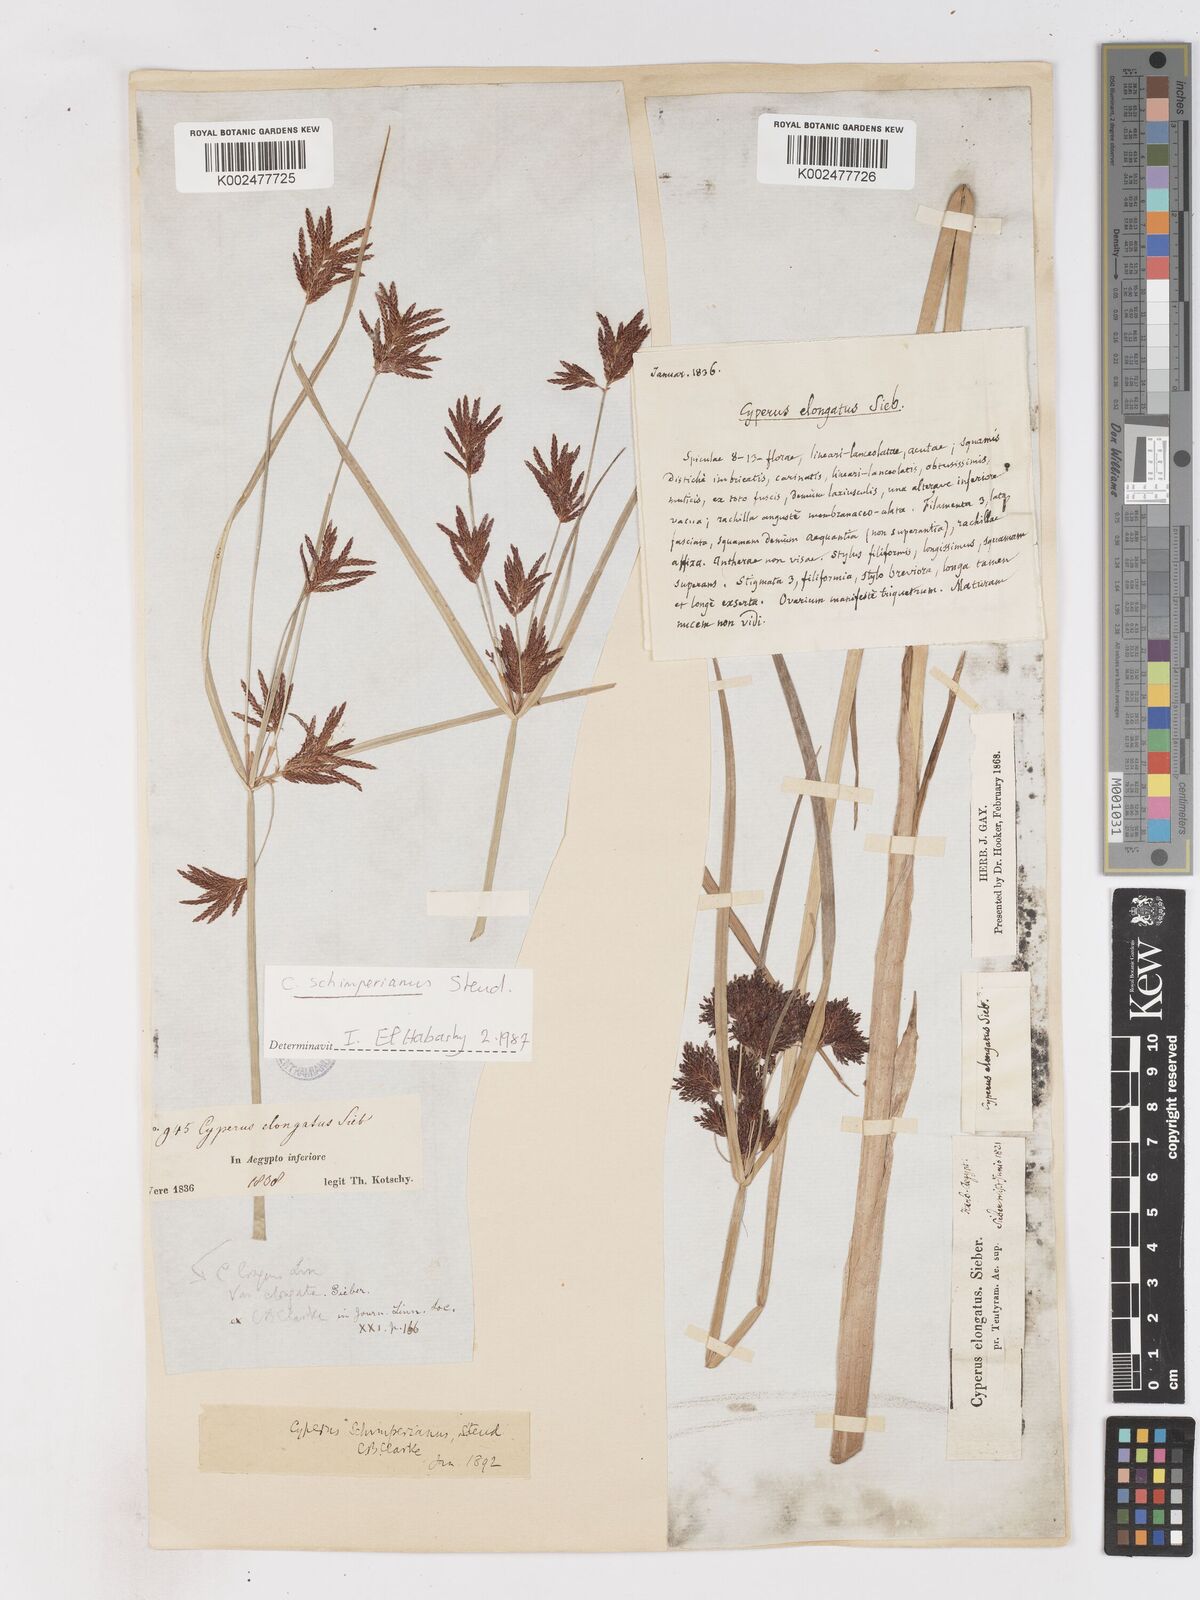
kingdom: Plantae
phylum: Tracheophyta
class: Liliopsida
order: Poales
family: Cyperaceae
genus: Cyperus
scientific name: Cyperus schimperianus
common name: Schimper flatsedge
